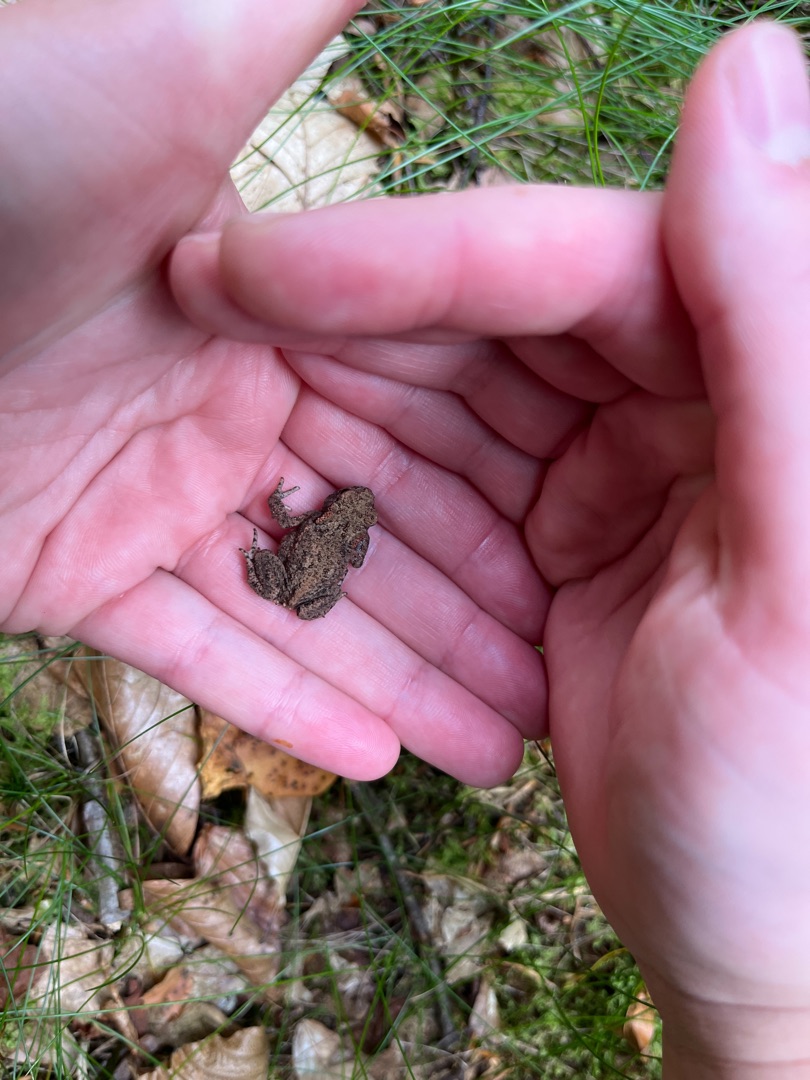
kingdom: Animalia
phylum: Chordata
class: Amphibia
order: Anura
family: Bufonidae
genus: Bufo
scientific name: Bufo bufo
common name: Skrubtudse
